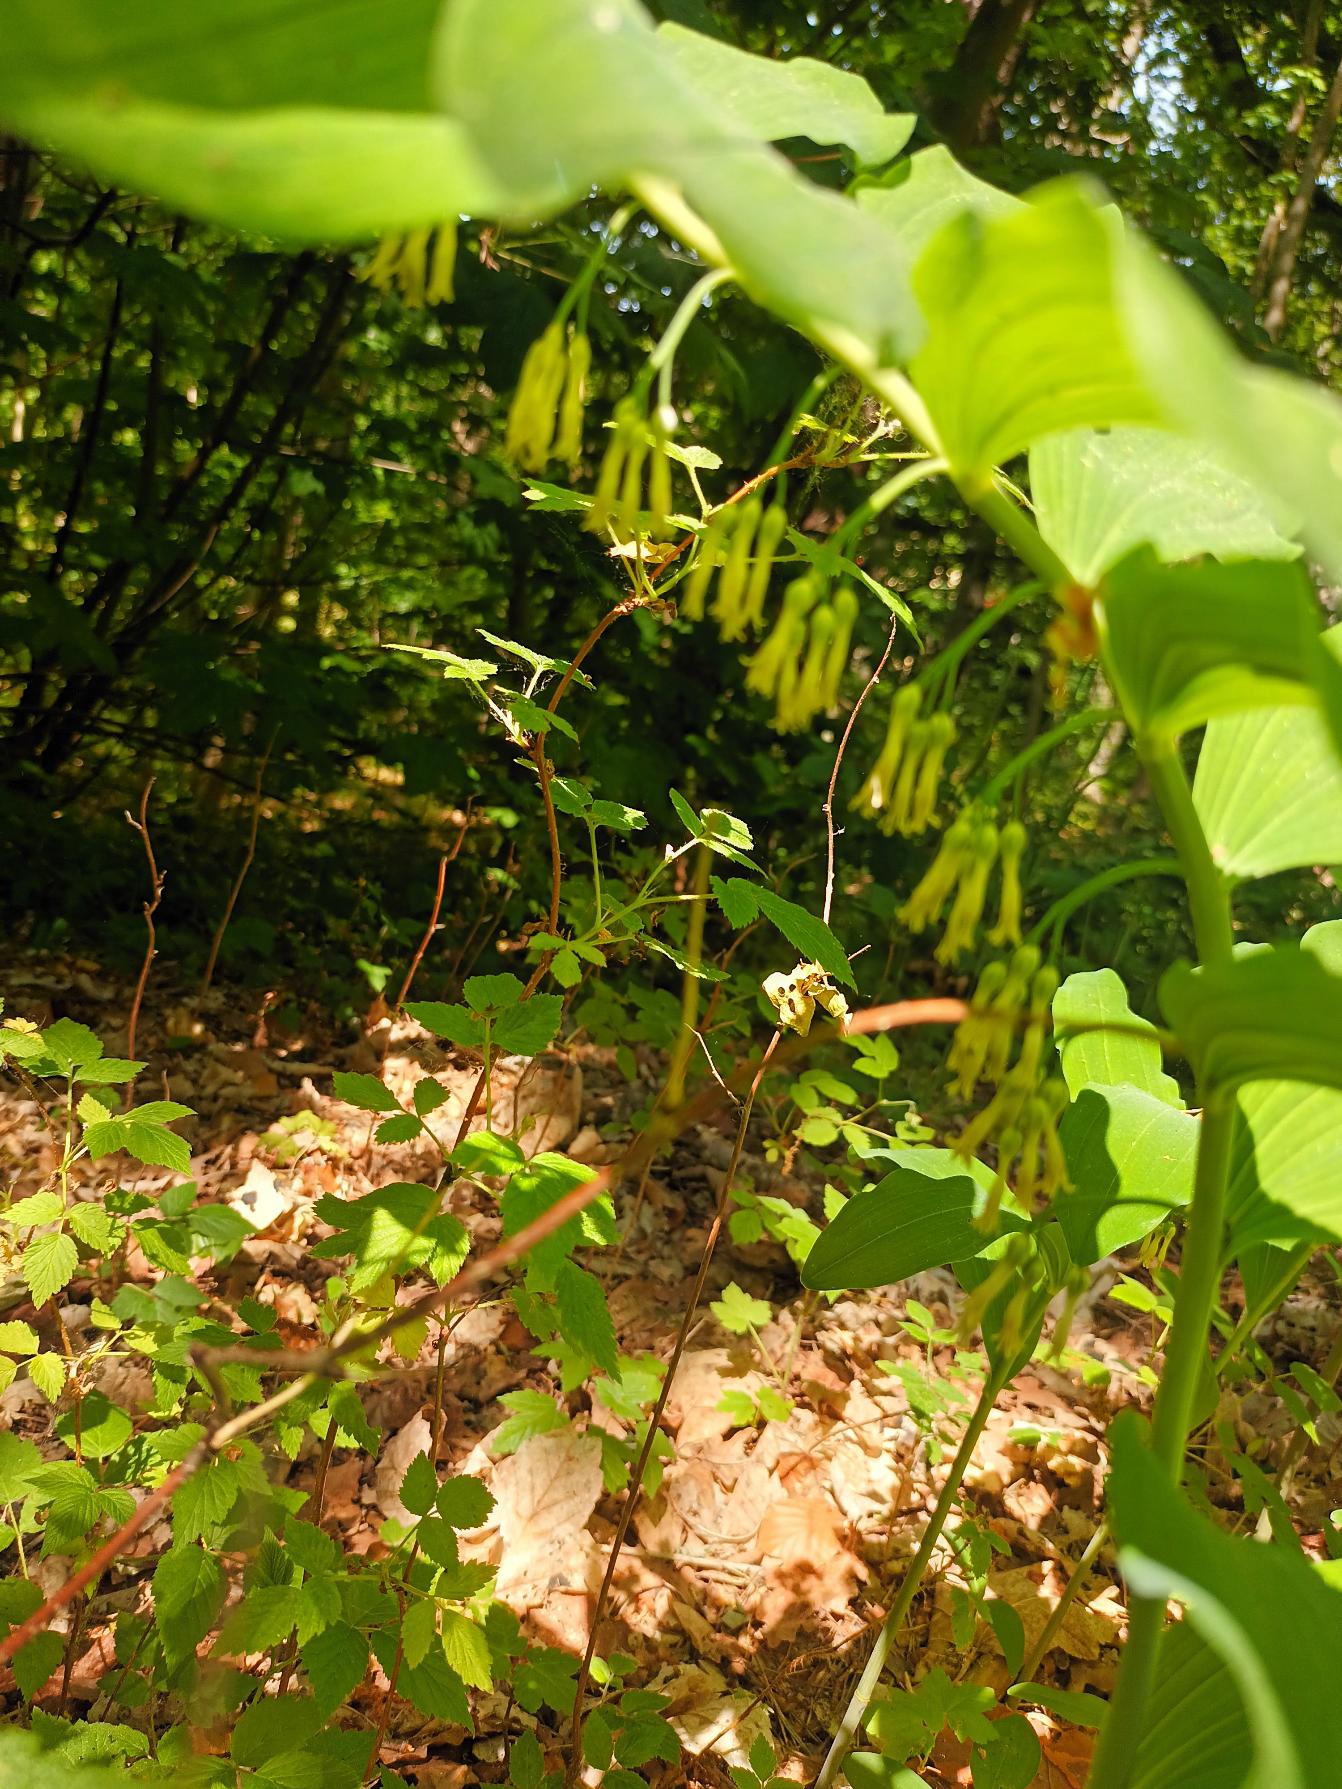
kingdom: Plantae
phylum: Tracheophyta
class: Liliopsida
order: Asparagales
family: Asparagaceae
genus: Polygonatum
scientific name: Polygonatum multiflorum
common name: Stor konval
